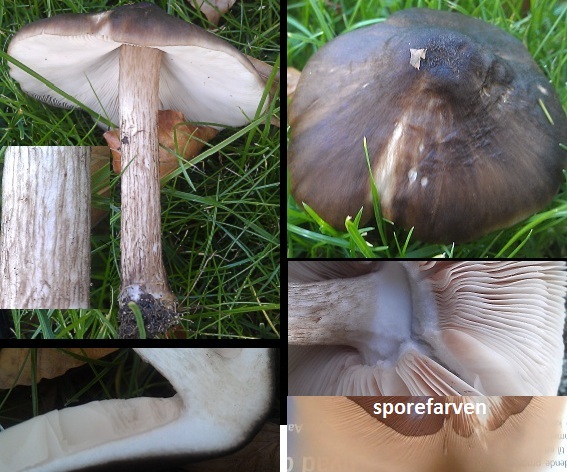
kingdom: Fungi
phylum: Basidiomycota
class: Agaricomycetes
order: Agaricales
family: Pluteaceae
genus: Pluteus
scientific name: Pluteus cervinus
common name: sodfarvet skærmhat
